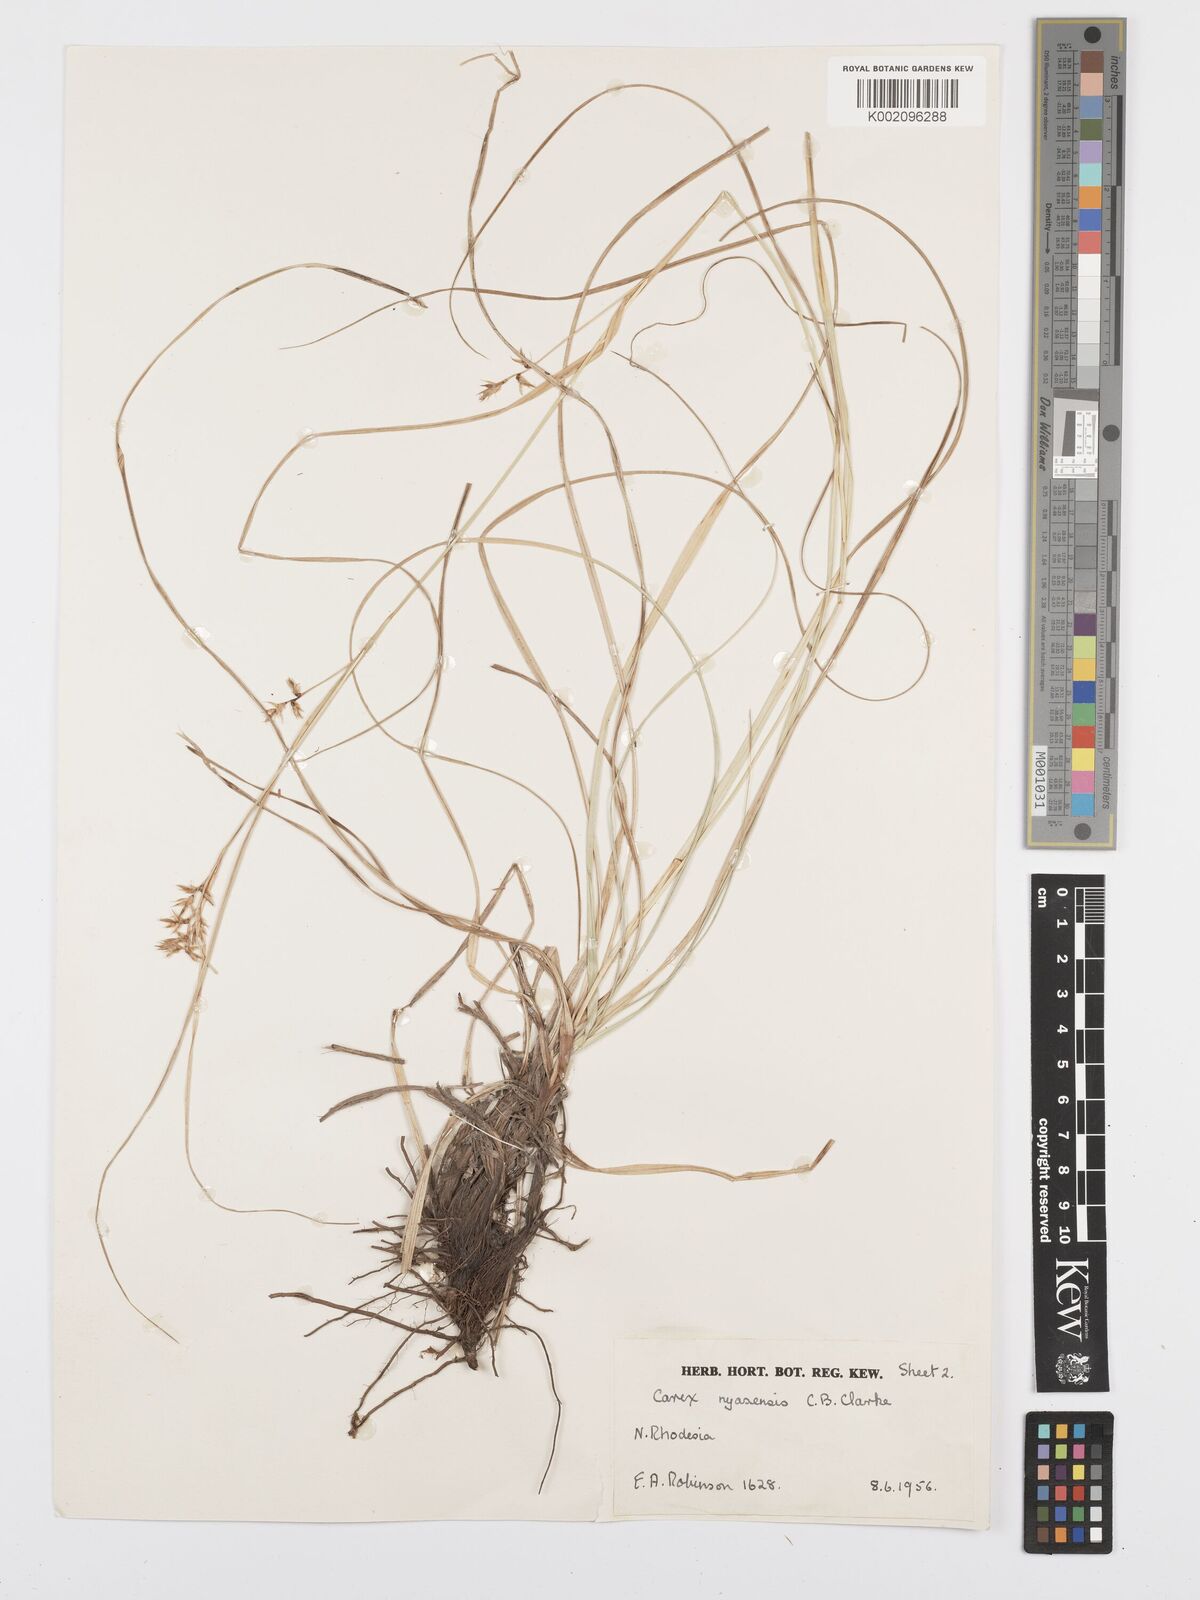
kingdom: Plantae
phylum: Tracheophyta
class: Liliopsida
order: Poales
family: Cyperaceae
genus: Carex
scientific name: Carex spicatopaniculata
